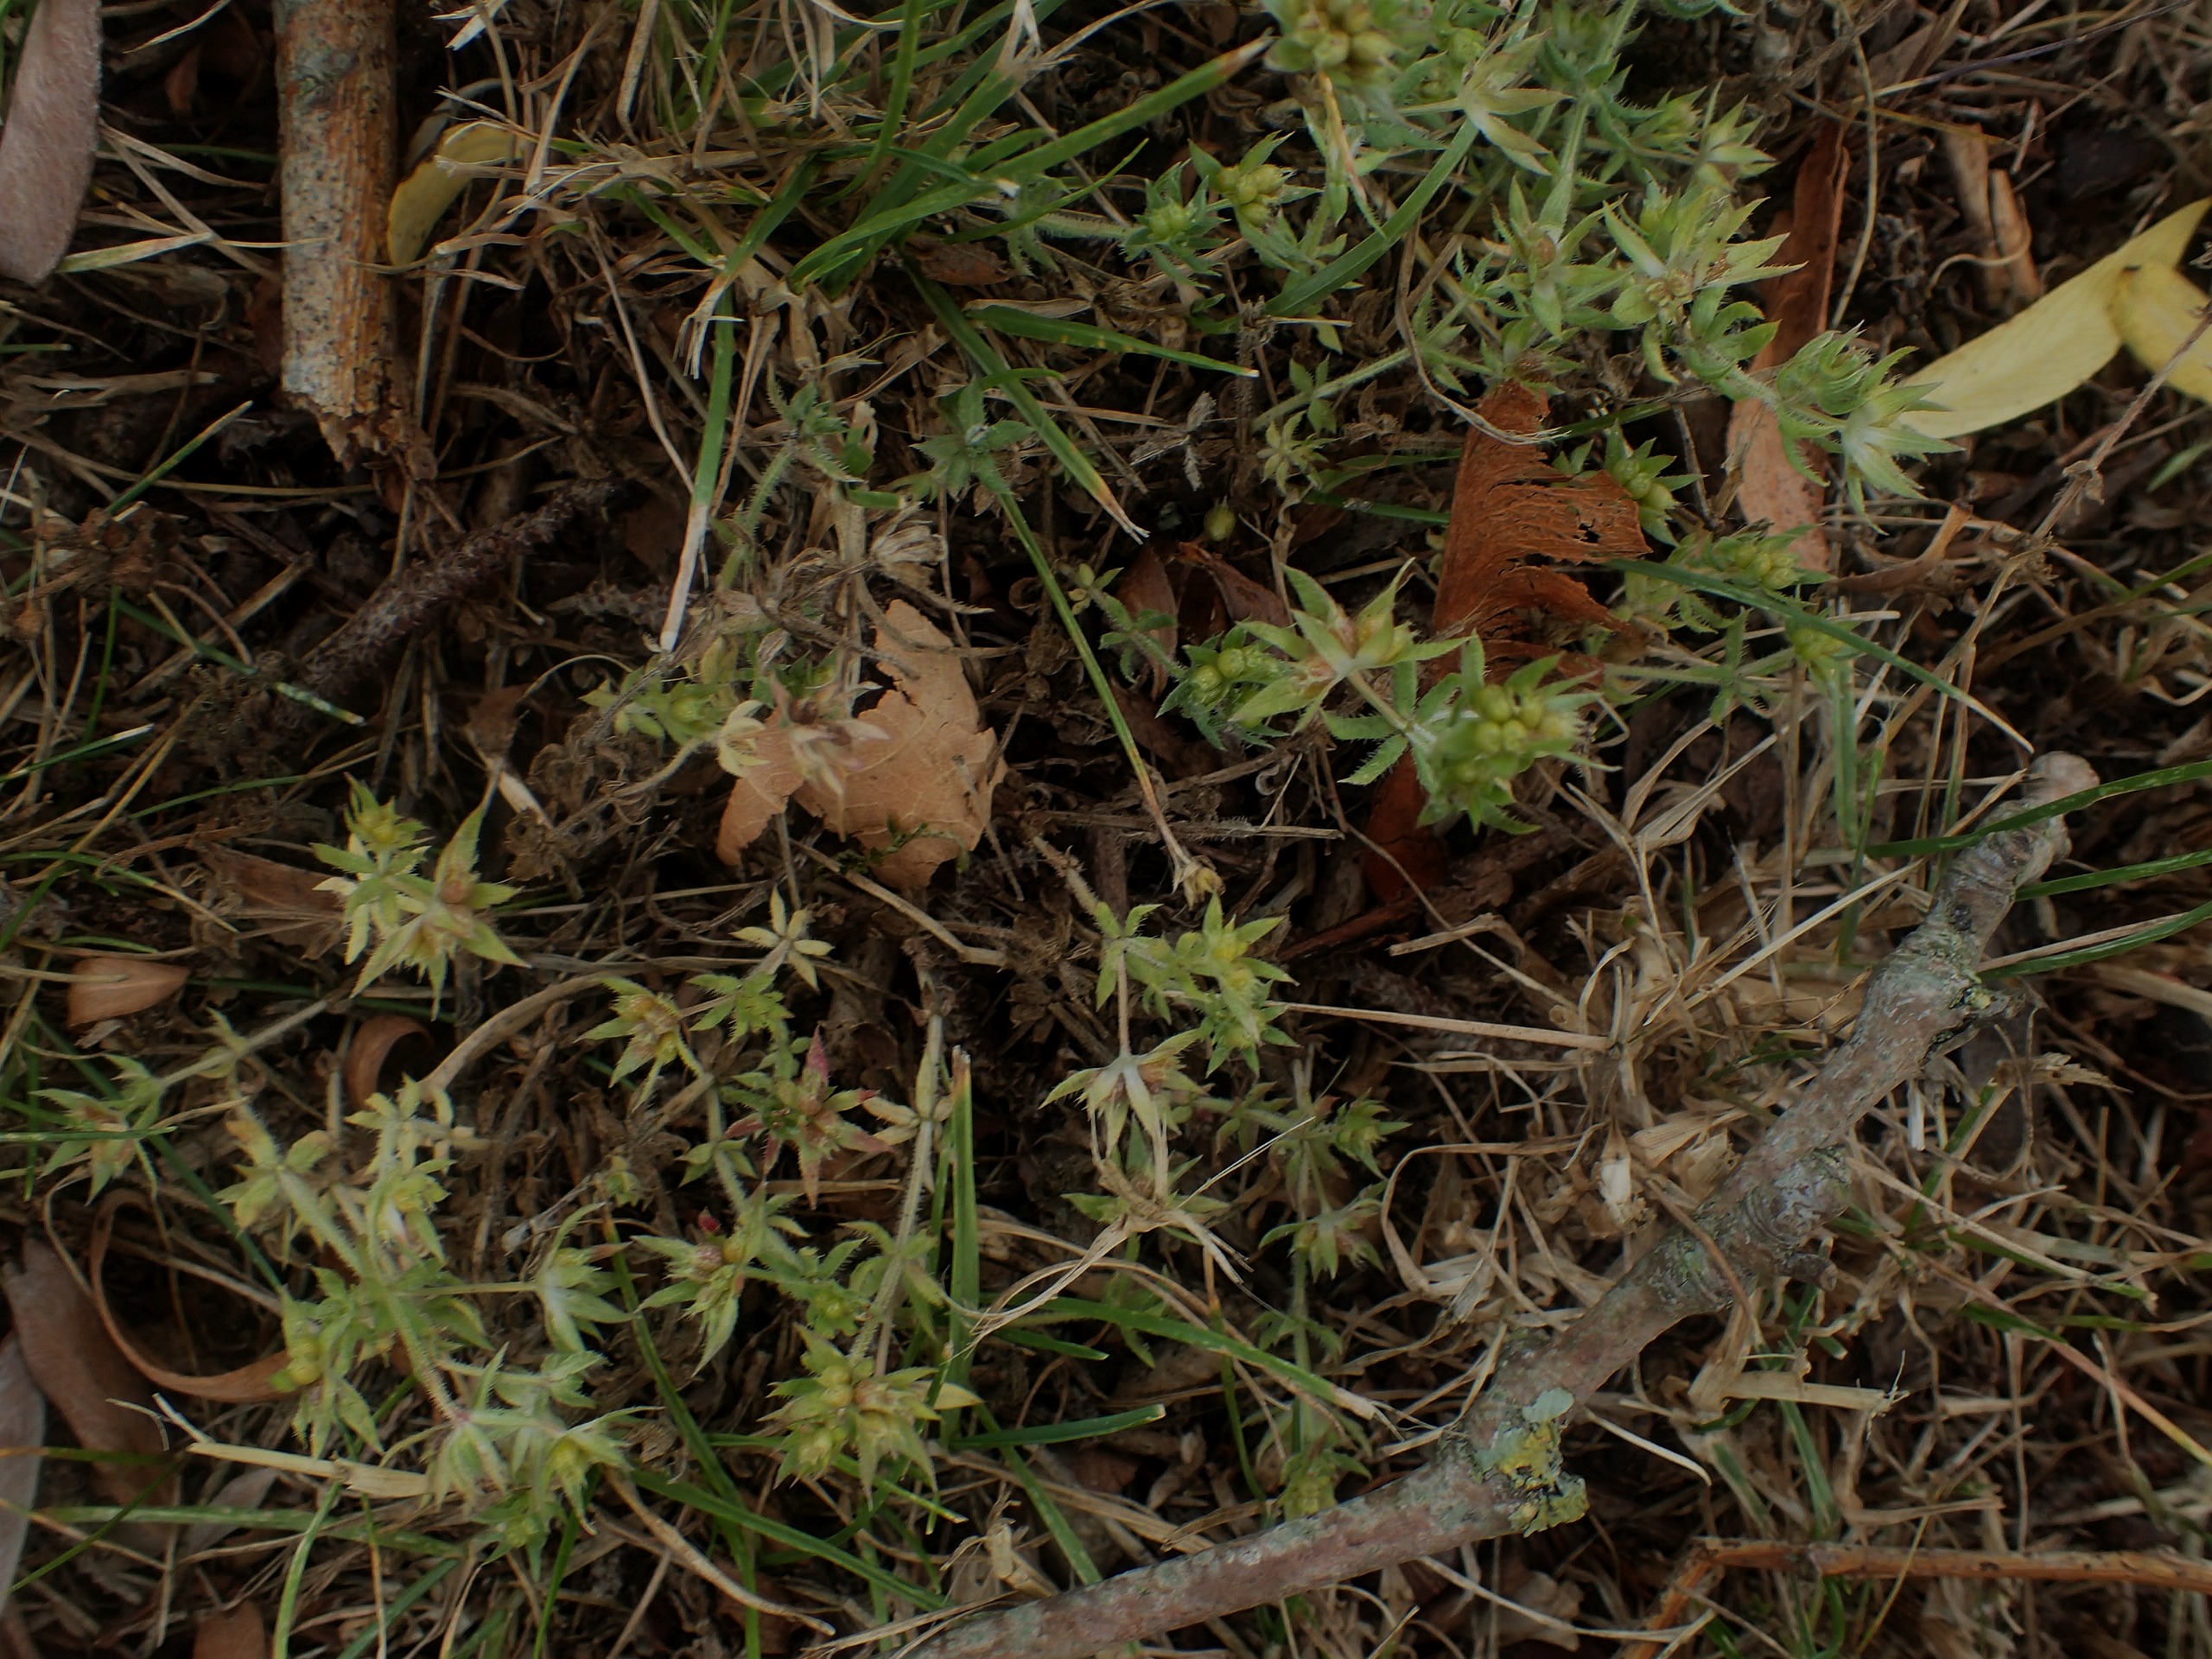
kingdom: Plantae
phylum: Tracheophyta
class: Magnoliopsida
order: Gentianales
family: Rubiaceae
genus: Sherardia
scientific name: Sherardia arvensis
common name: Blåstjerne
